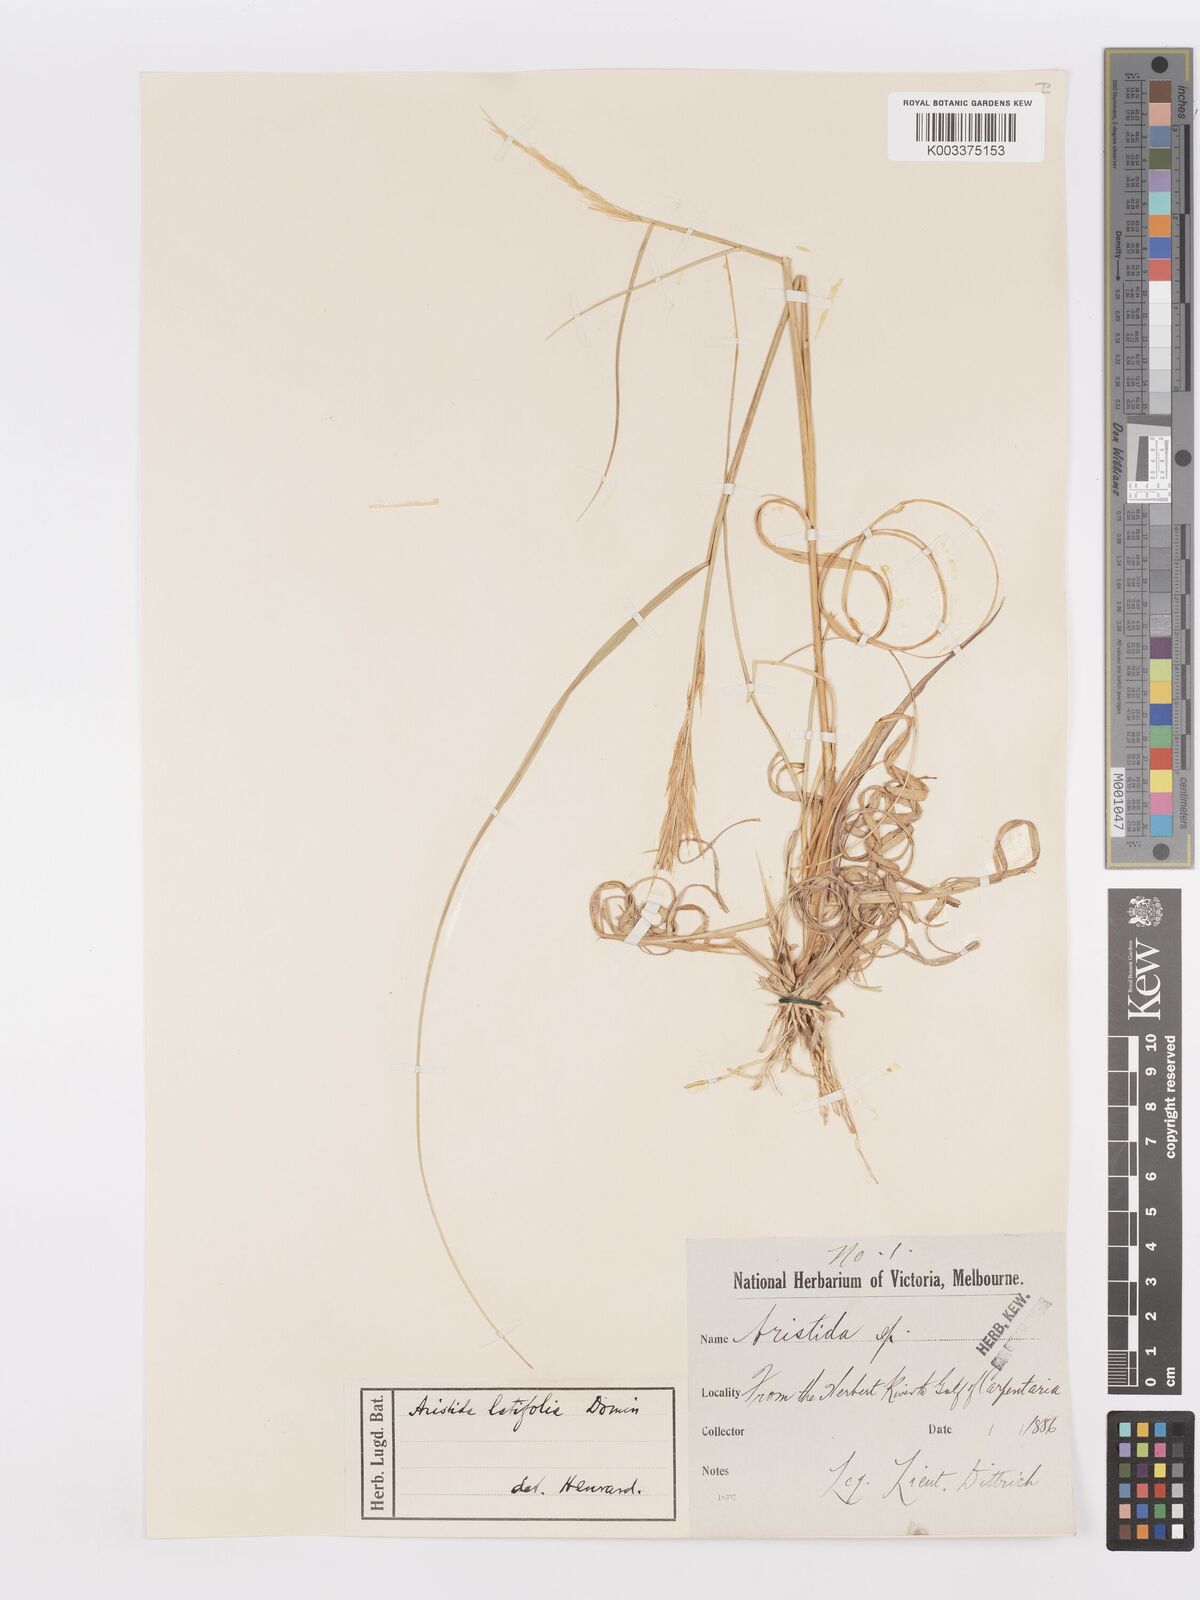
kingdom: Plantae
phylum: Tracheophyta
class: Liliopsida
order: Poales
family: Poaceae
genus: Aristida
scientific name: Aristida latifolia
